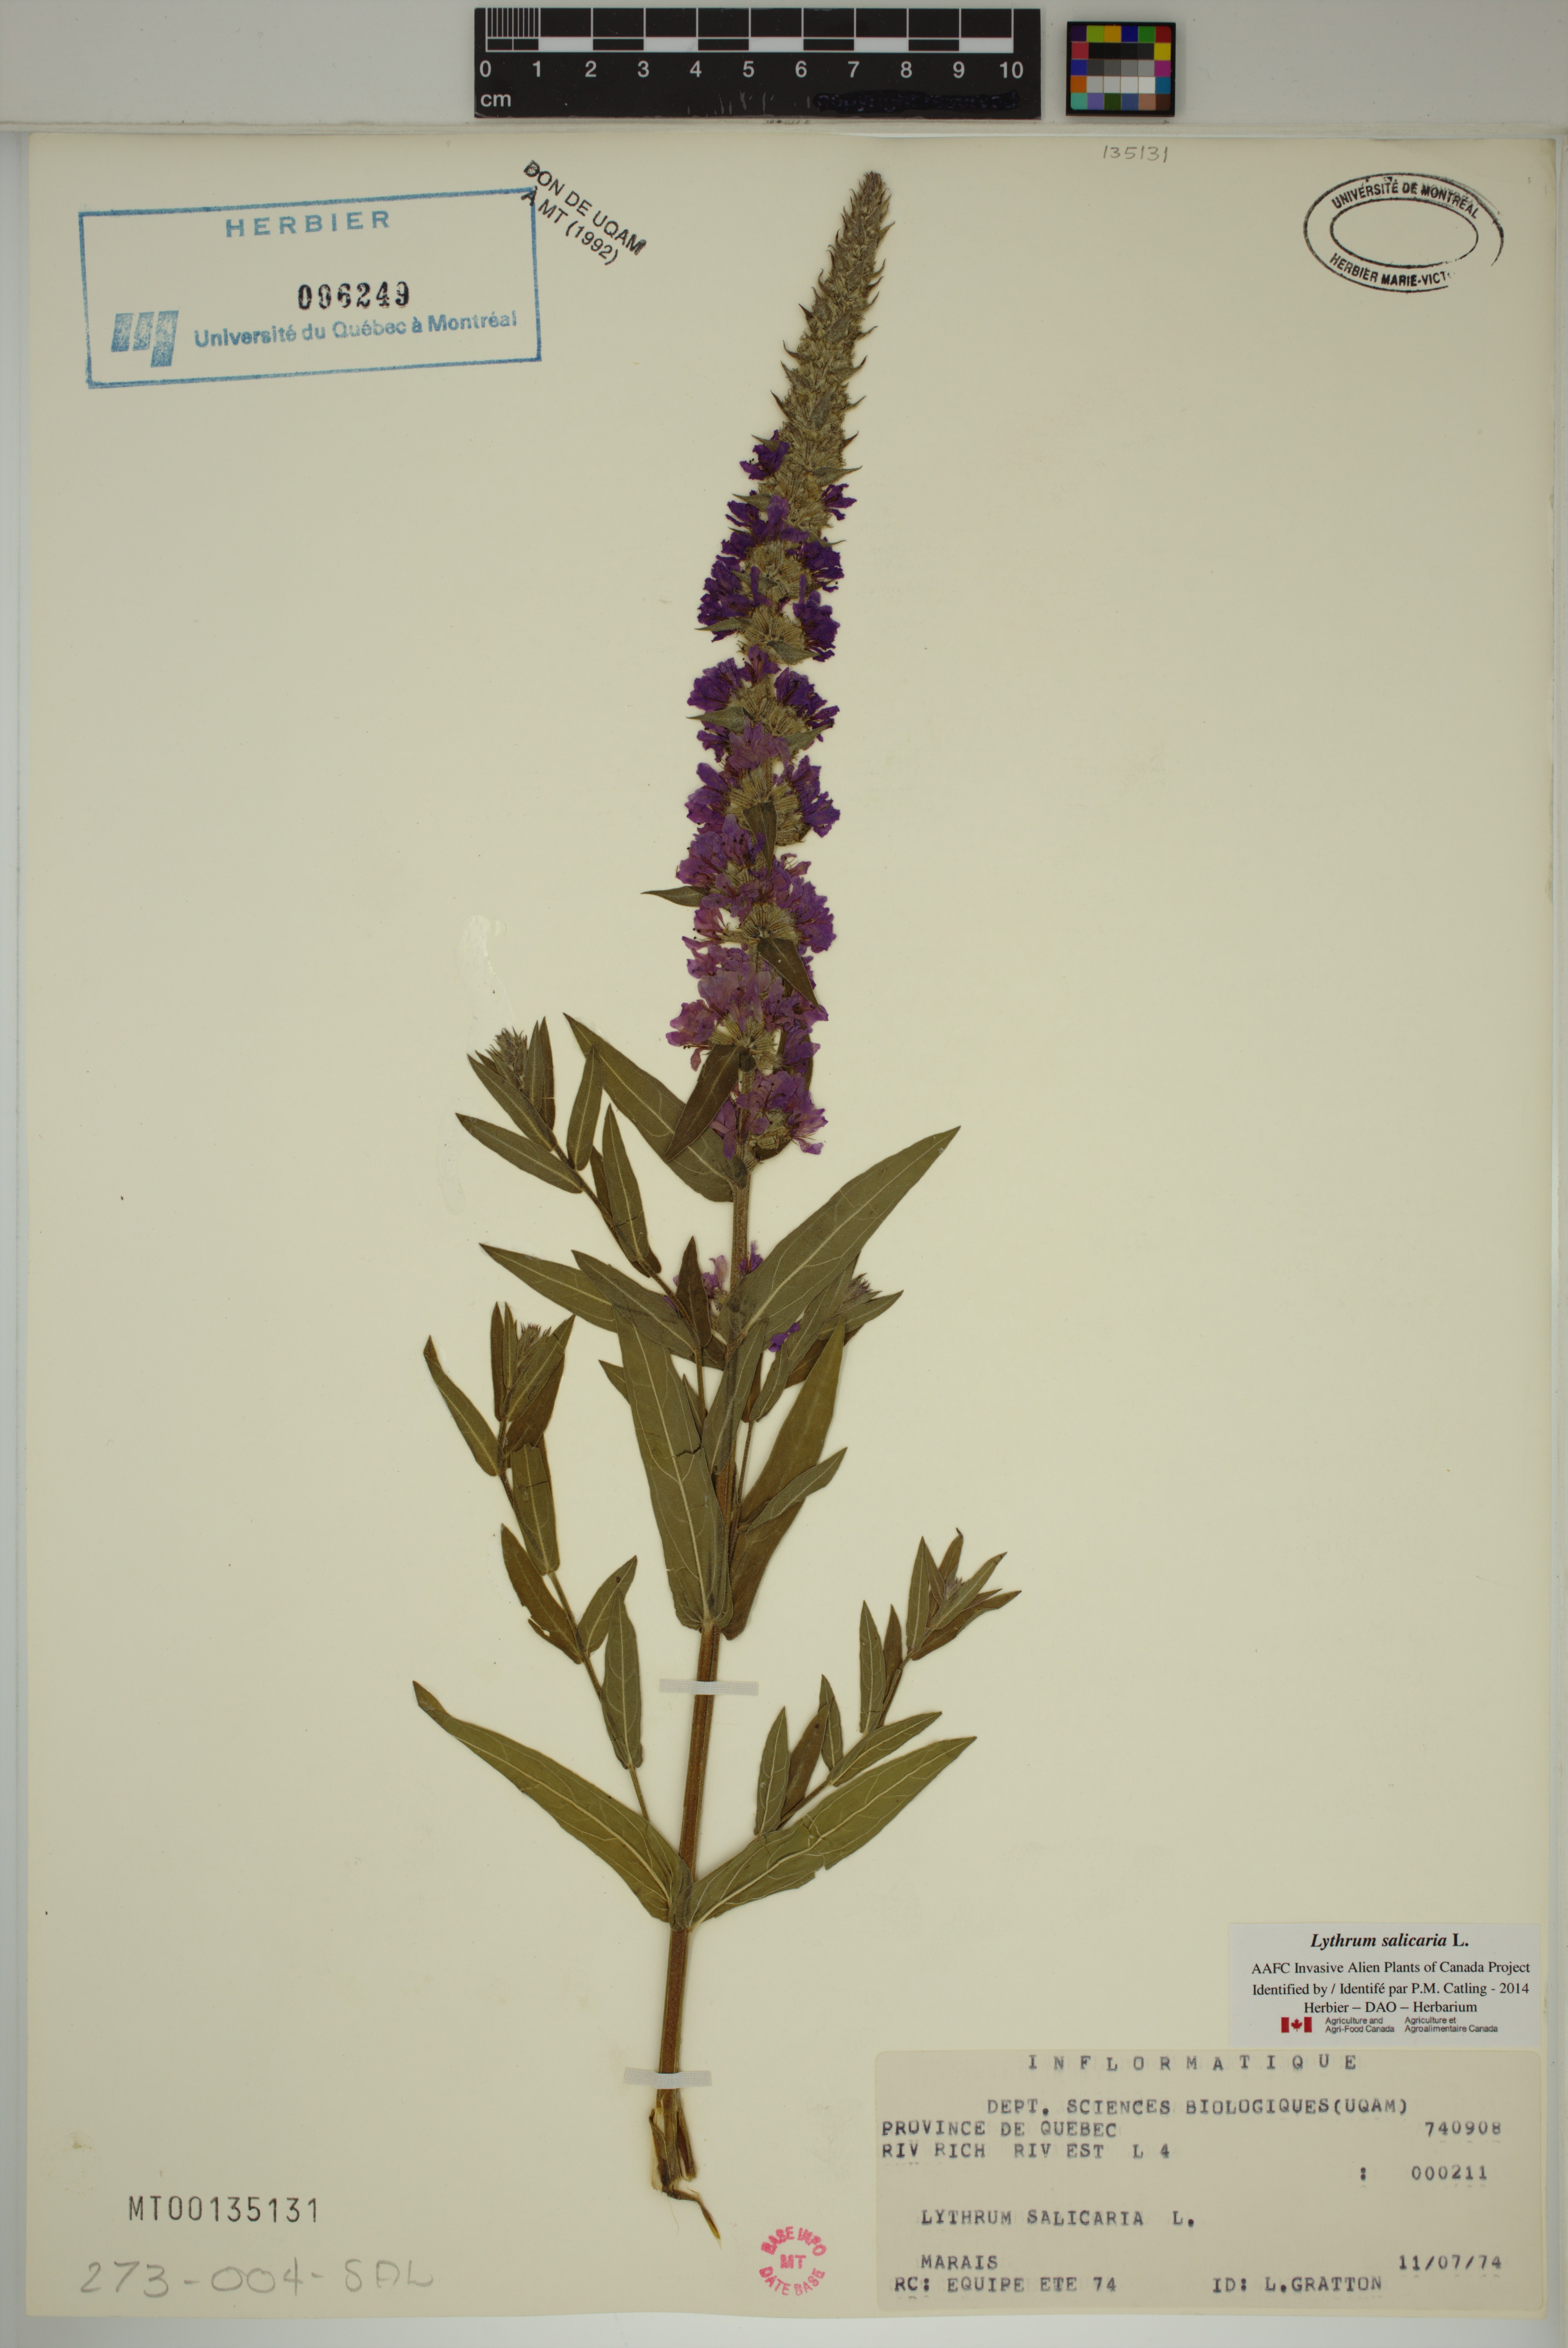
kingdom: Plantae
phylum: Tracheophyta
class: Magnoliopsida
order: Myrtales
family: Lythraceae
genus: Lythrum
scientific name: Lythrum salicaria
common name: Purple loosestrife
